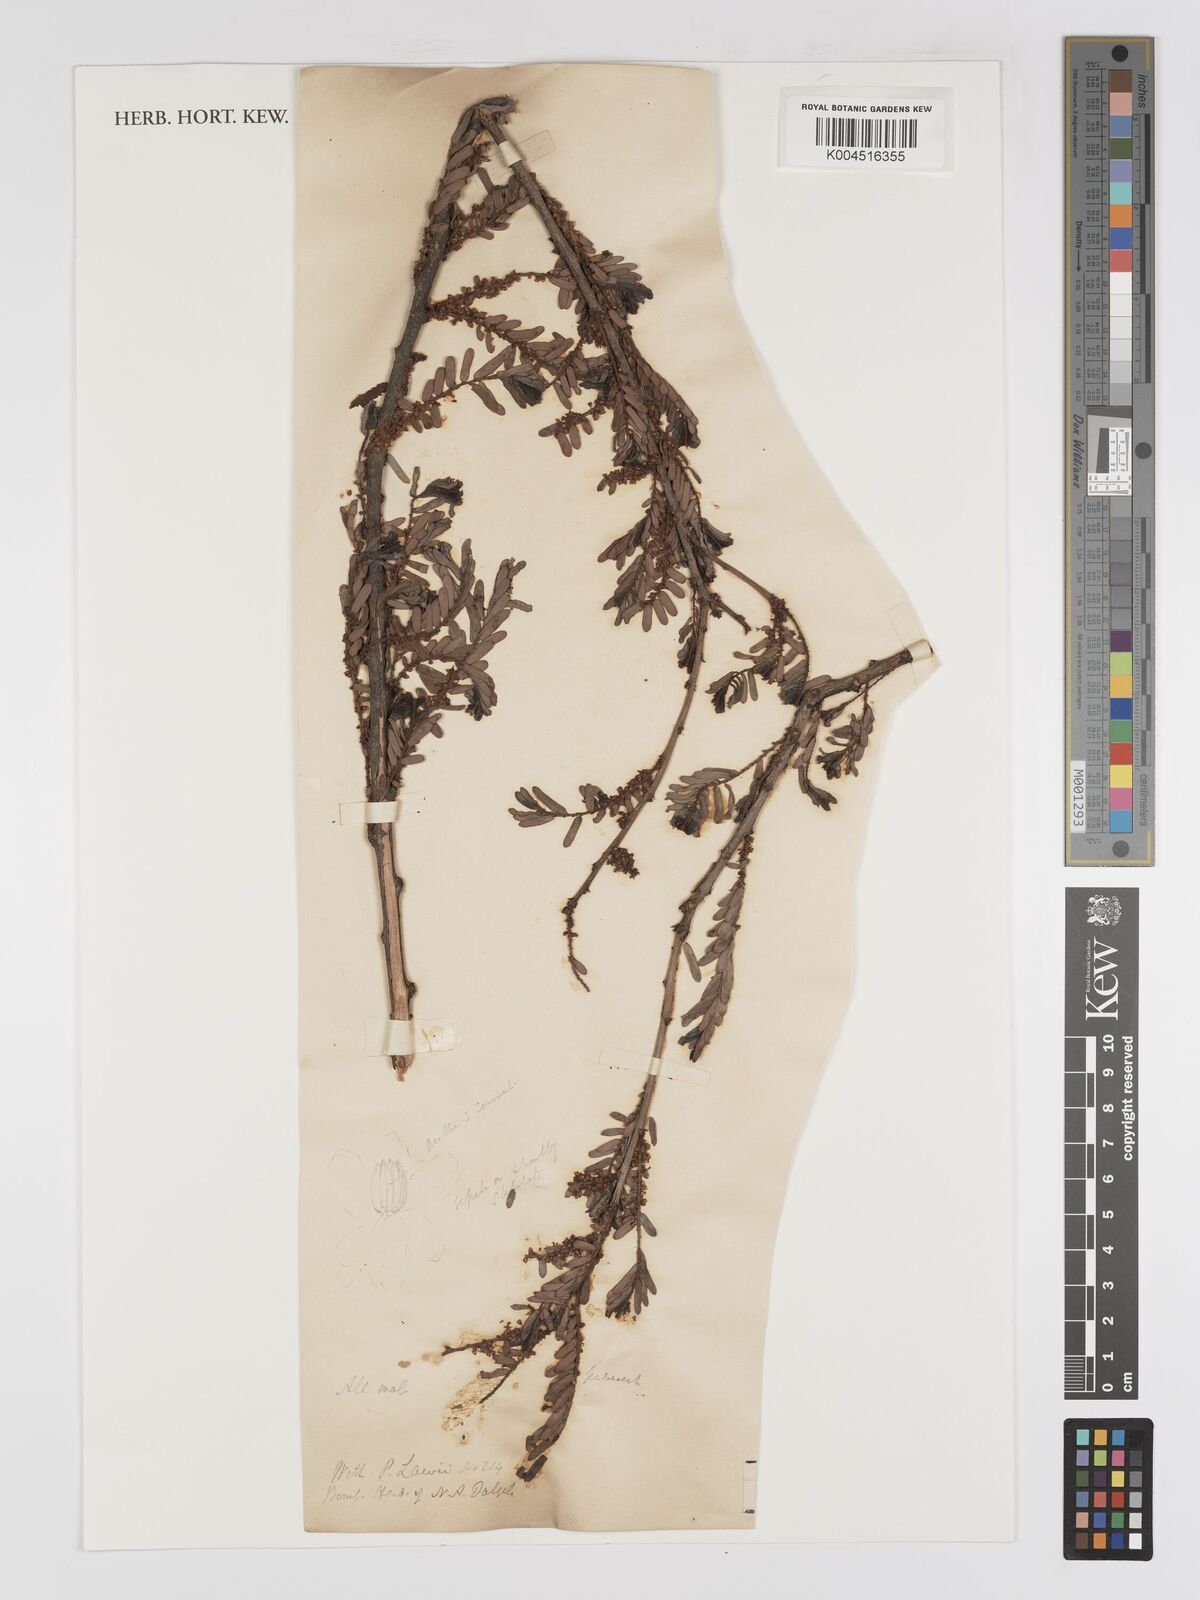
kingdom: Plantae
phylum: Tracheophyta
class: Magnoliopsida
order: Malpighiales
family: Phyllanthaceae
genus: Phyllanthus
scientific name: Phyllanthus emblica
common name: Indian gooseberry
